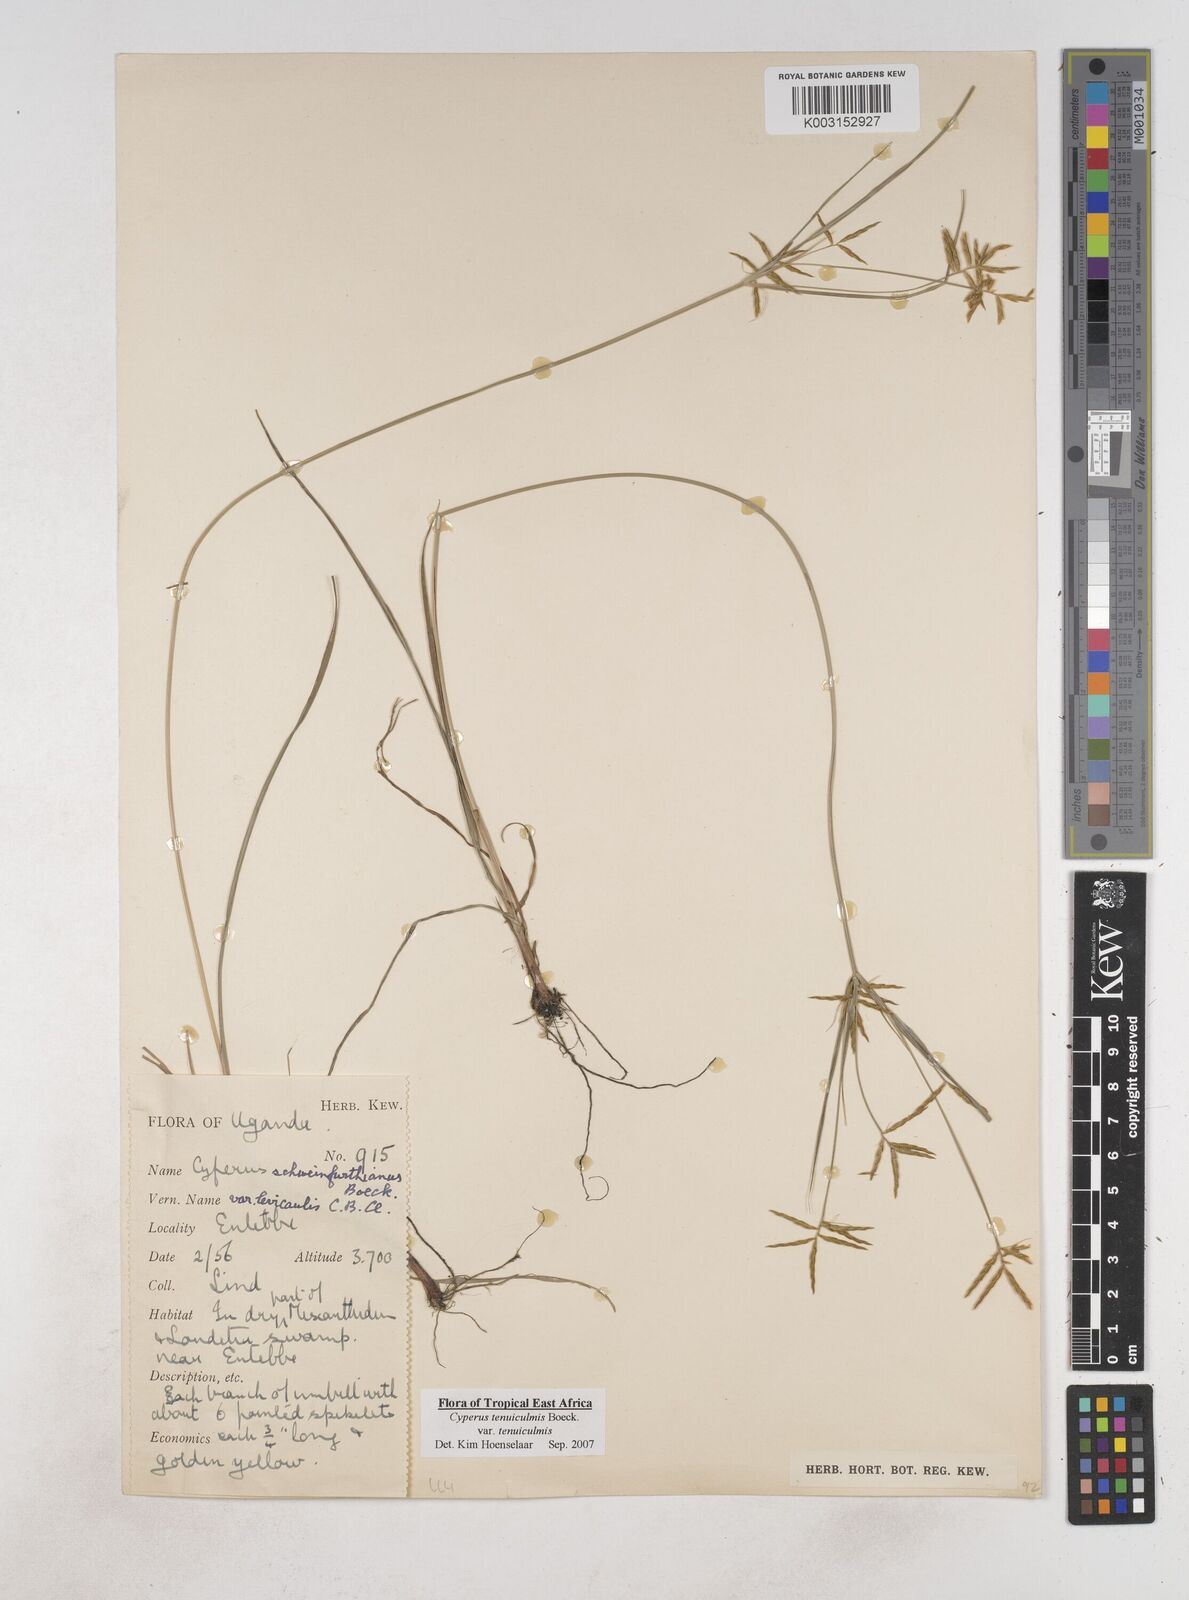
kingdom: Plantae
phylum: Tracheophyta
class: Liliopsida
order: Poales
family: Cyperaceae
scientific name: Cyperaceae
